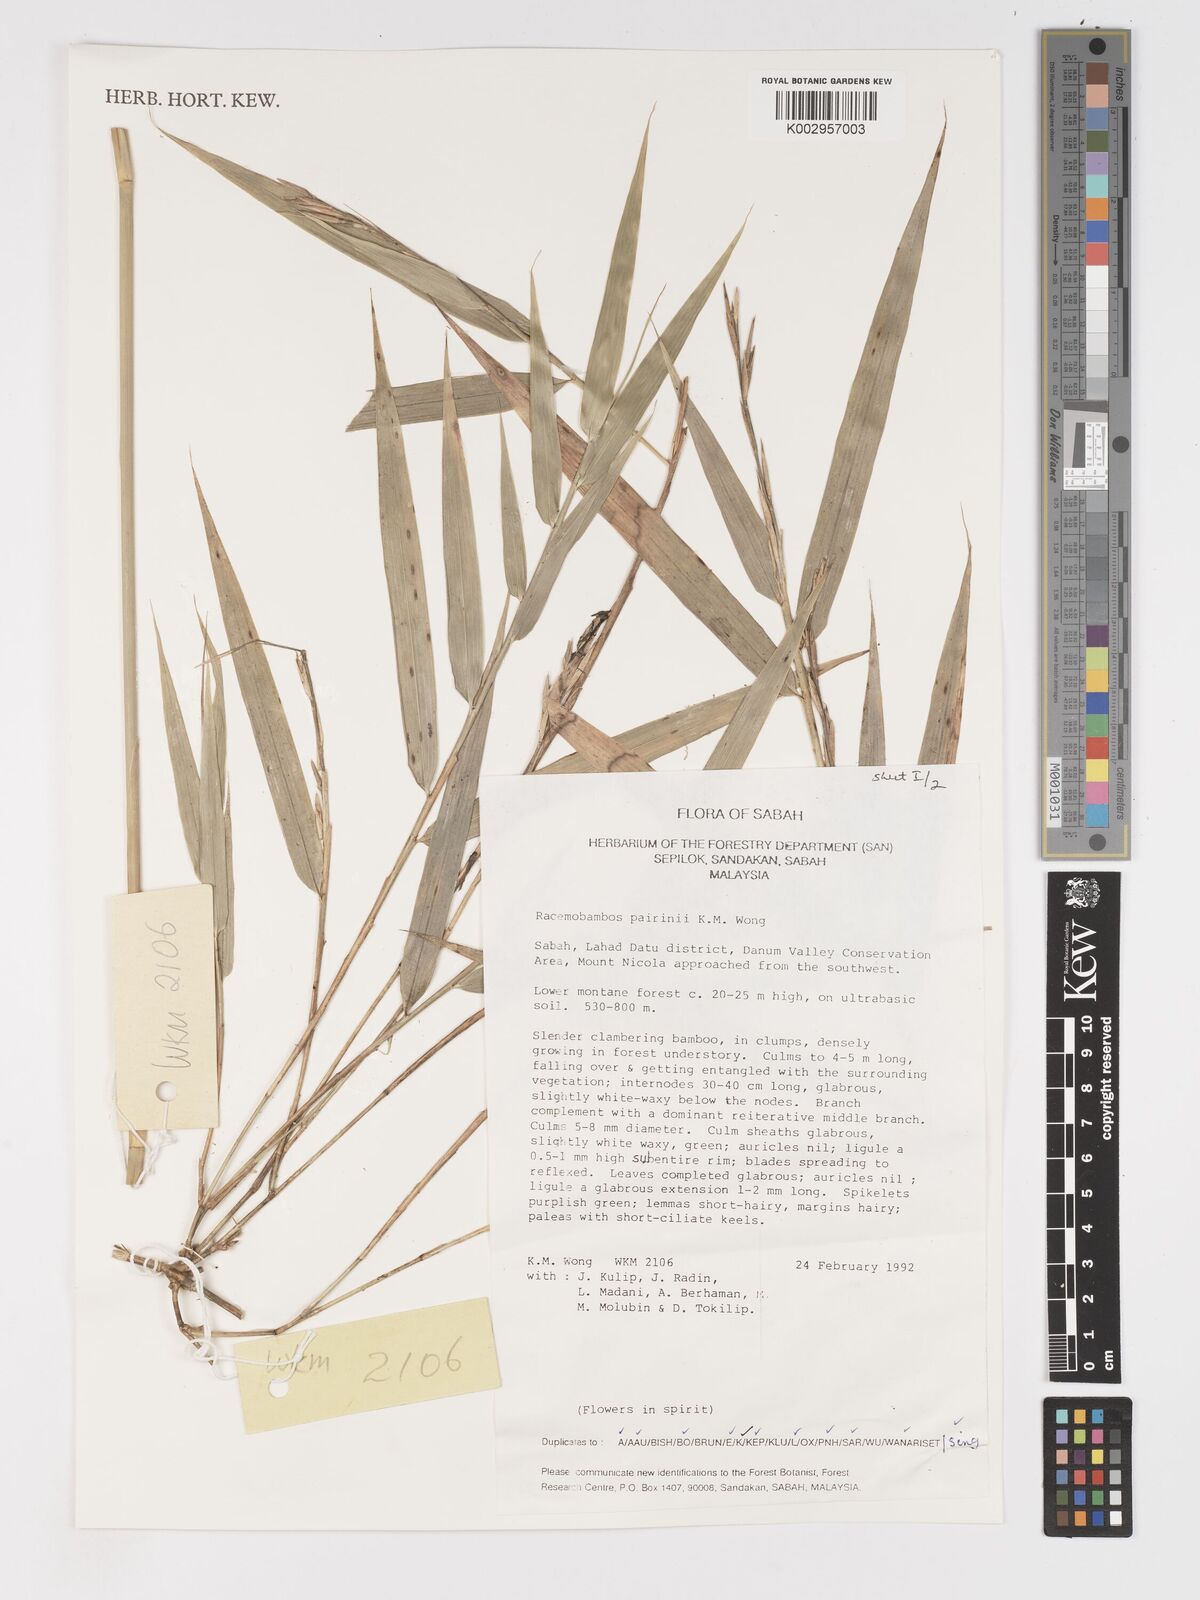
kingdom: Plantae
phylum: Tracheophyta
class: Liliopsida
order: Poales
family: Poaceae
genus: Racemobambos
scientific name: Racemobambos pairinii
